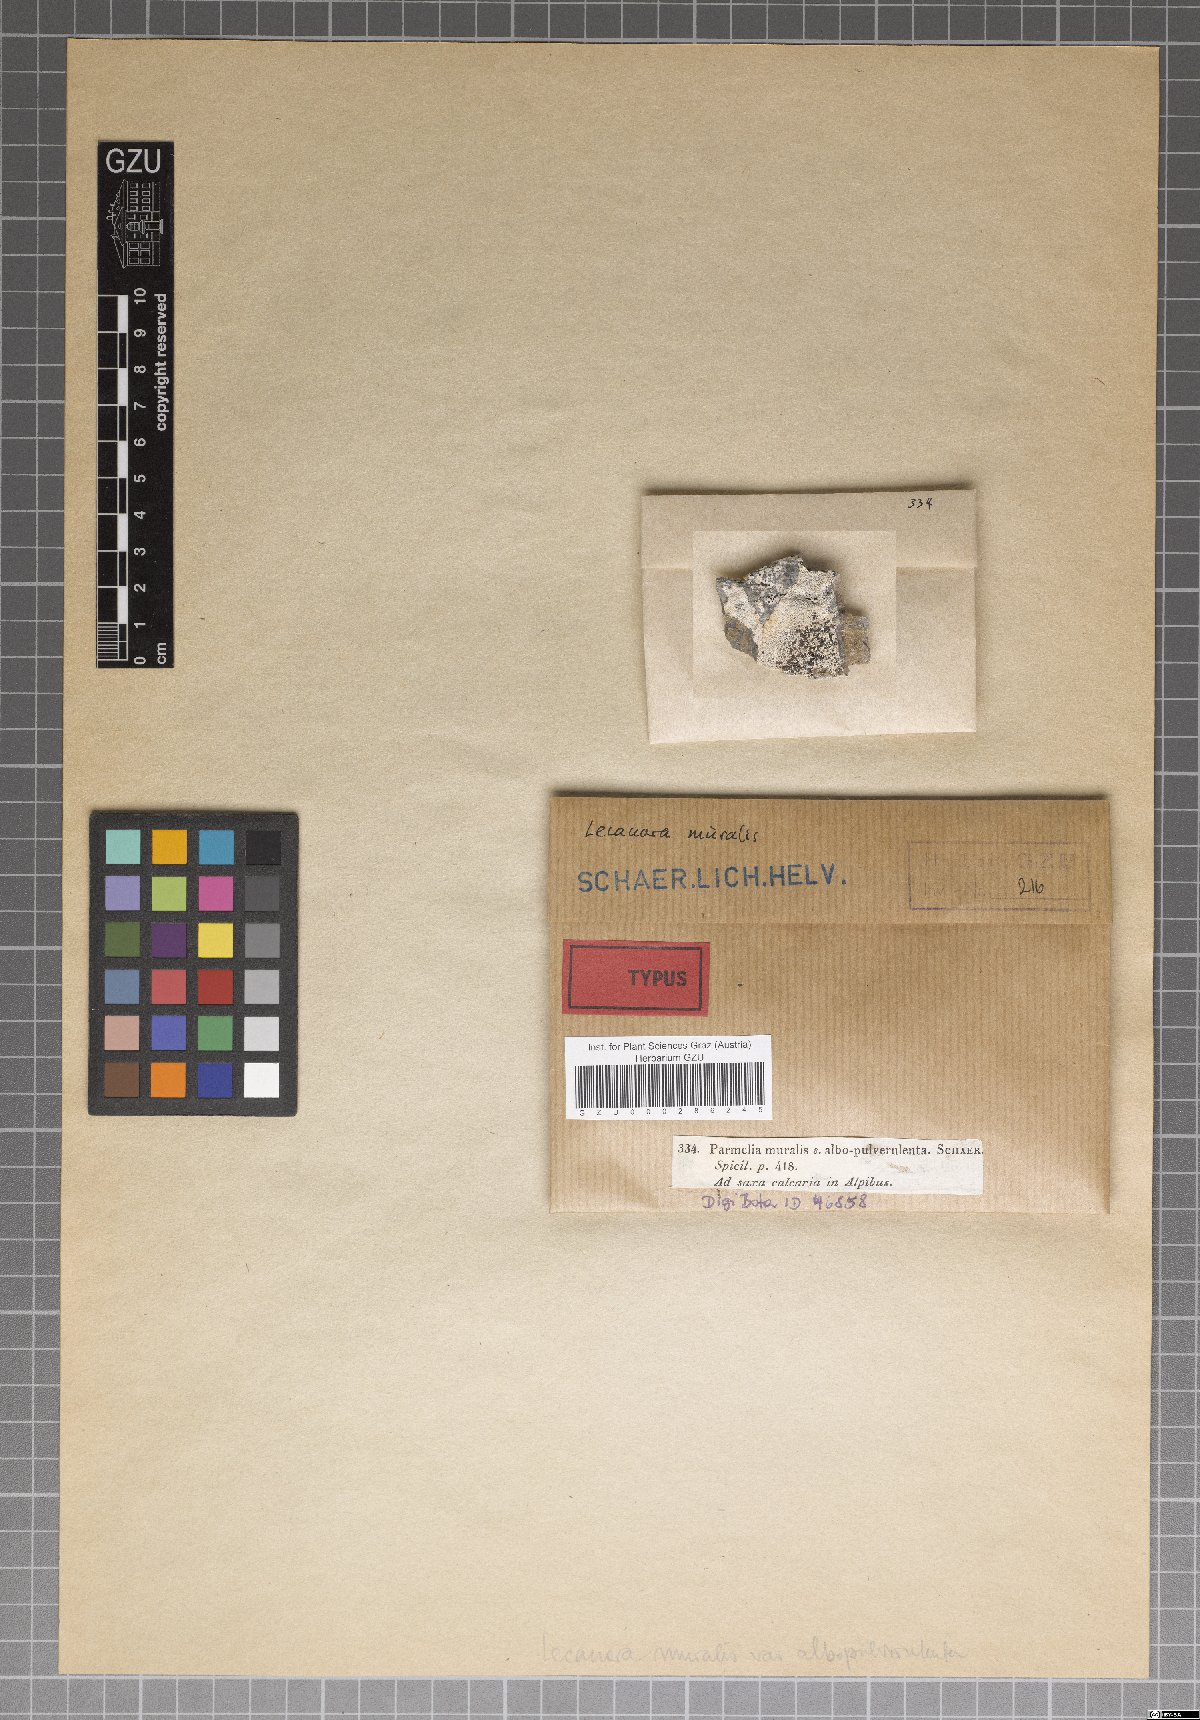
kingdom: Fungi
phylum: Ascomycota
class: Lecanoromycetes
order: Lecanorales
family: Parmeliaceae
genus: Parmelinella
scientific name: Parmelinella
